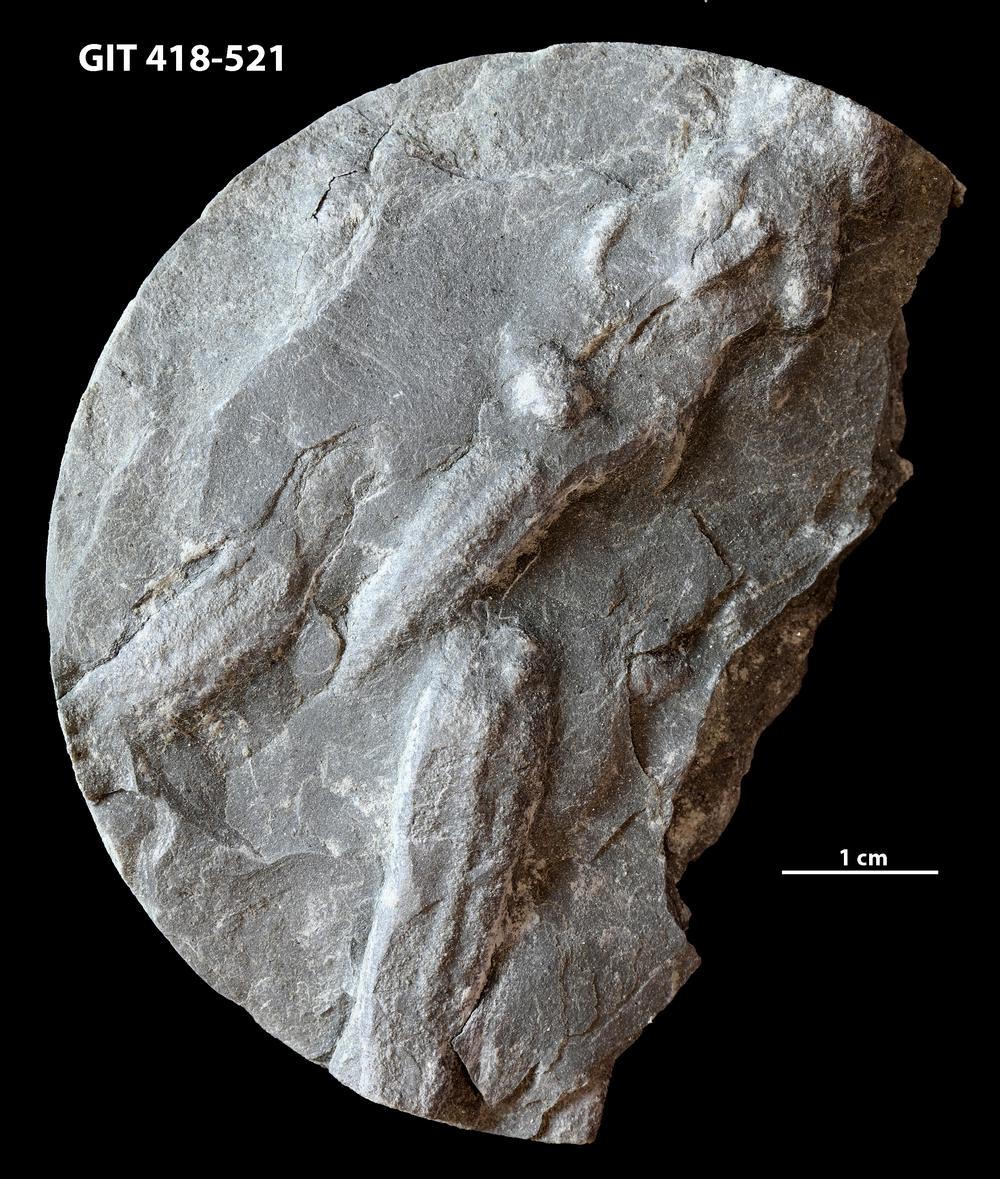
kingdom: Animalia
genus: Didymaulichnus
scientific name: Didymaulichnus
